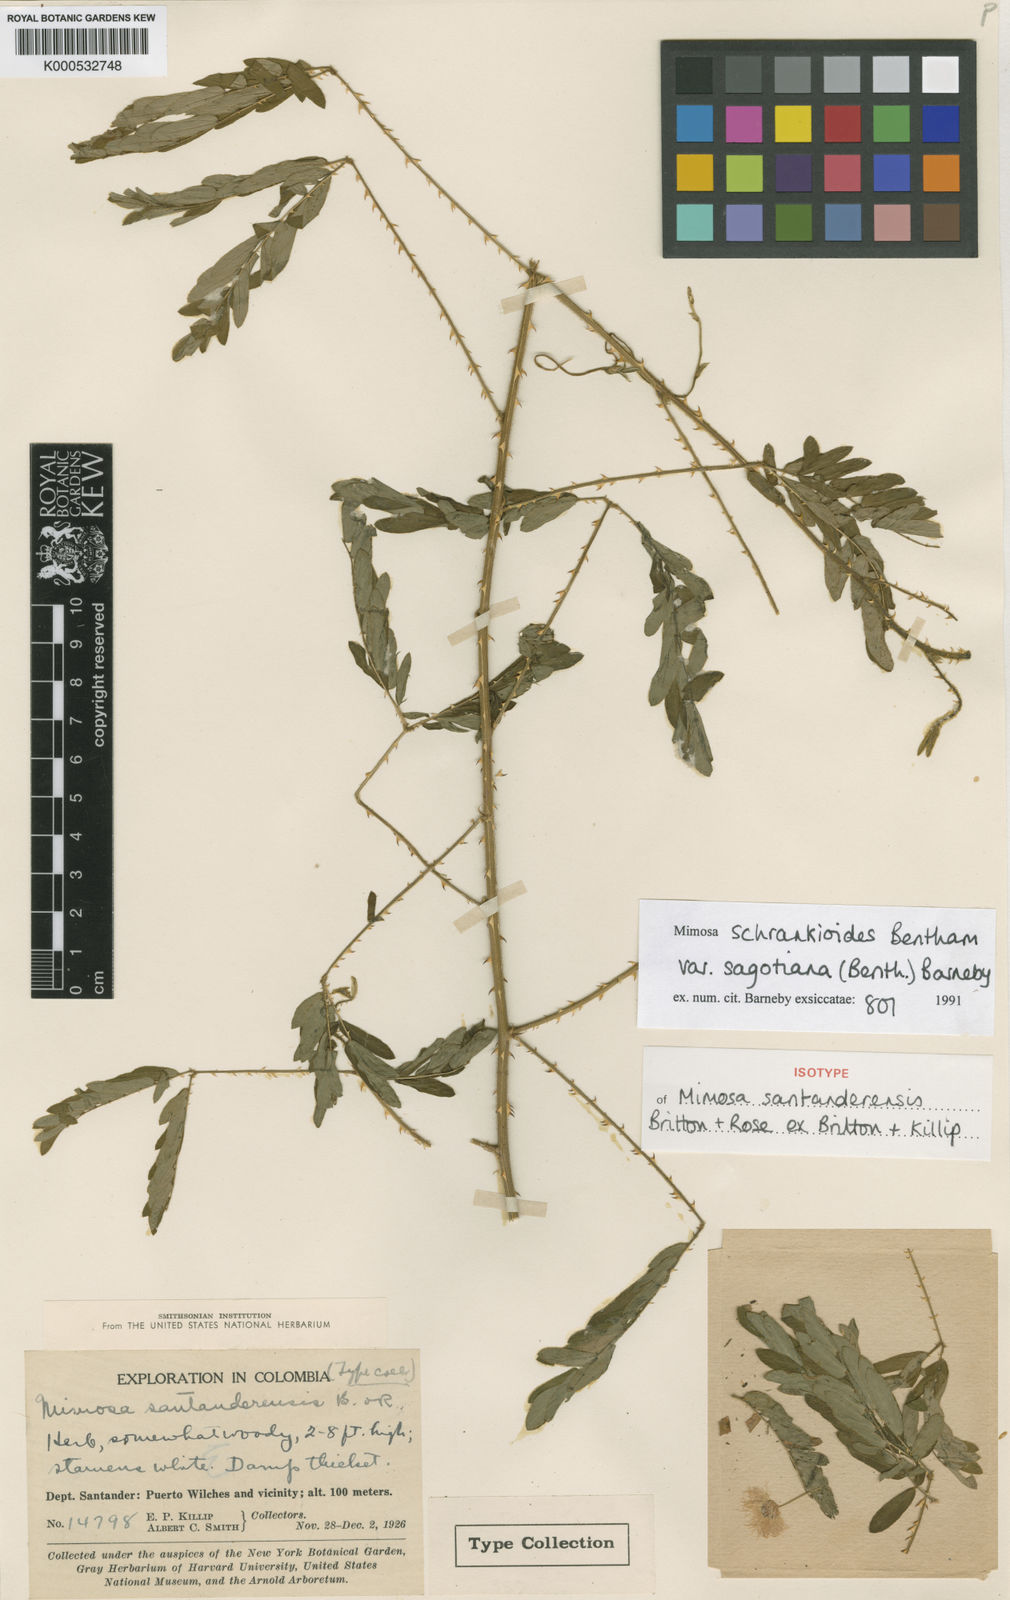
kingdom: Plantae
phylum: Tracheophyta
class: Magnoliopsida
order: Fabales
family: Fabaceae
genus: Mimosa
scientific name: Mimosa schrankioides
